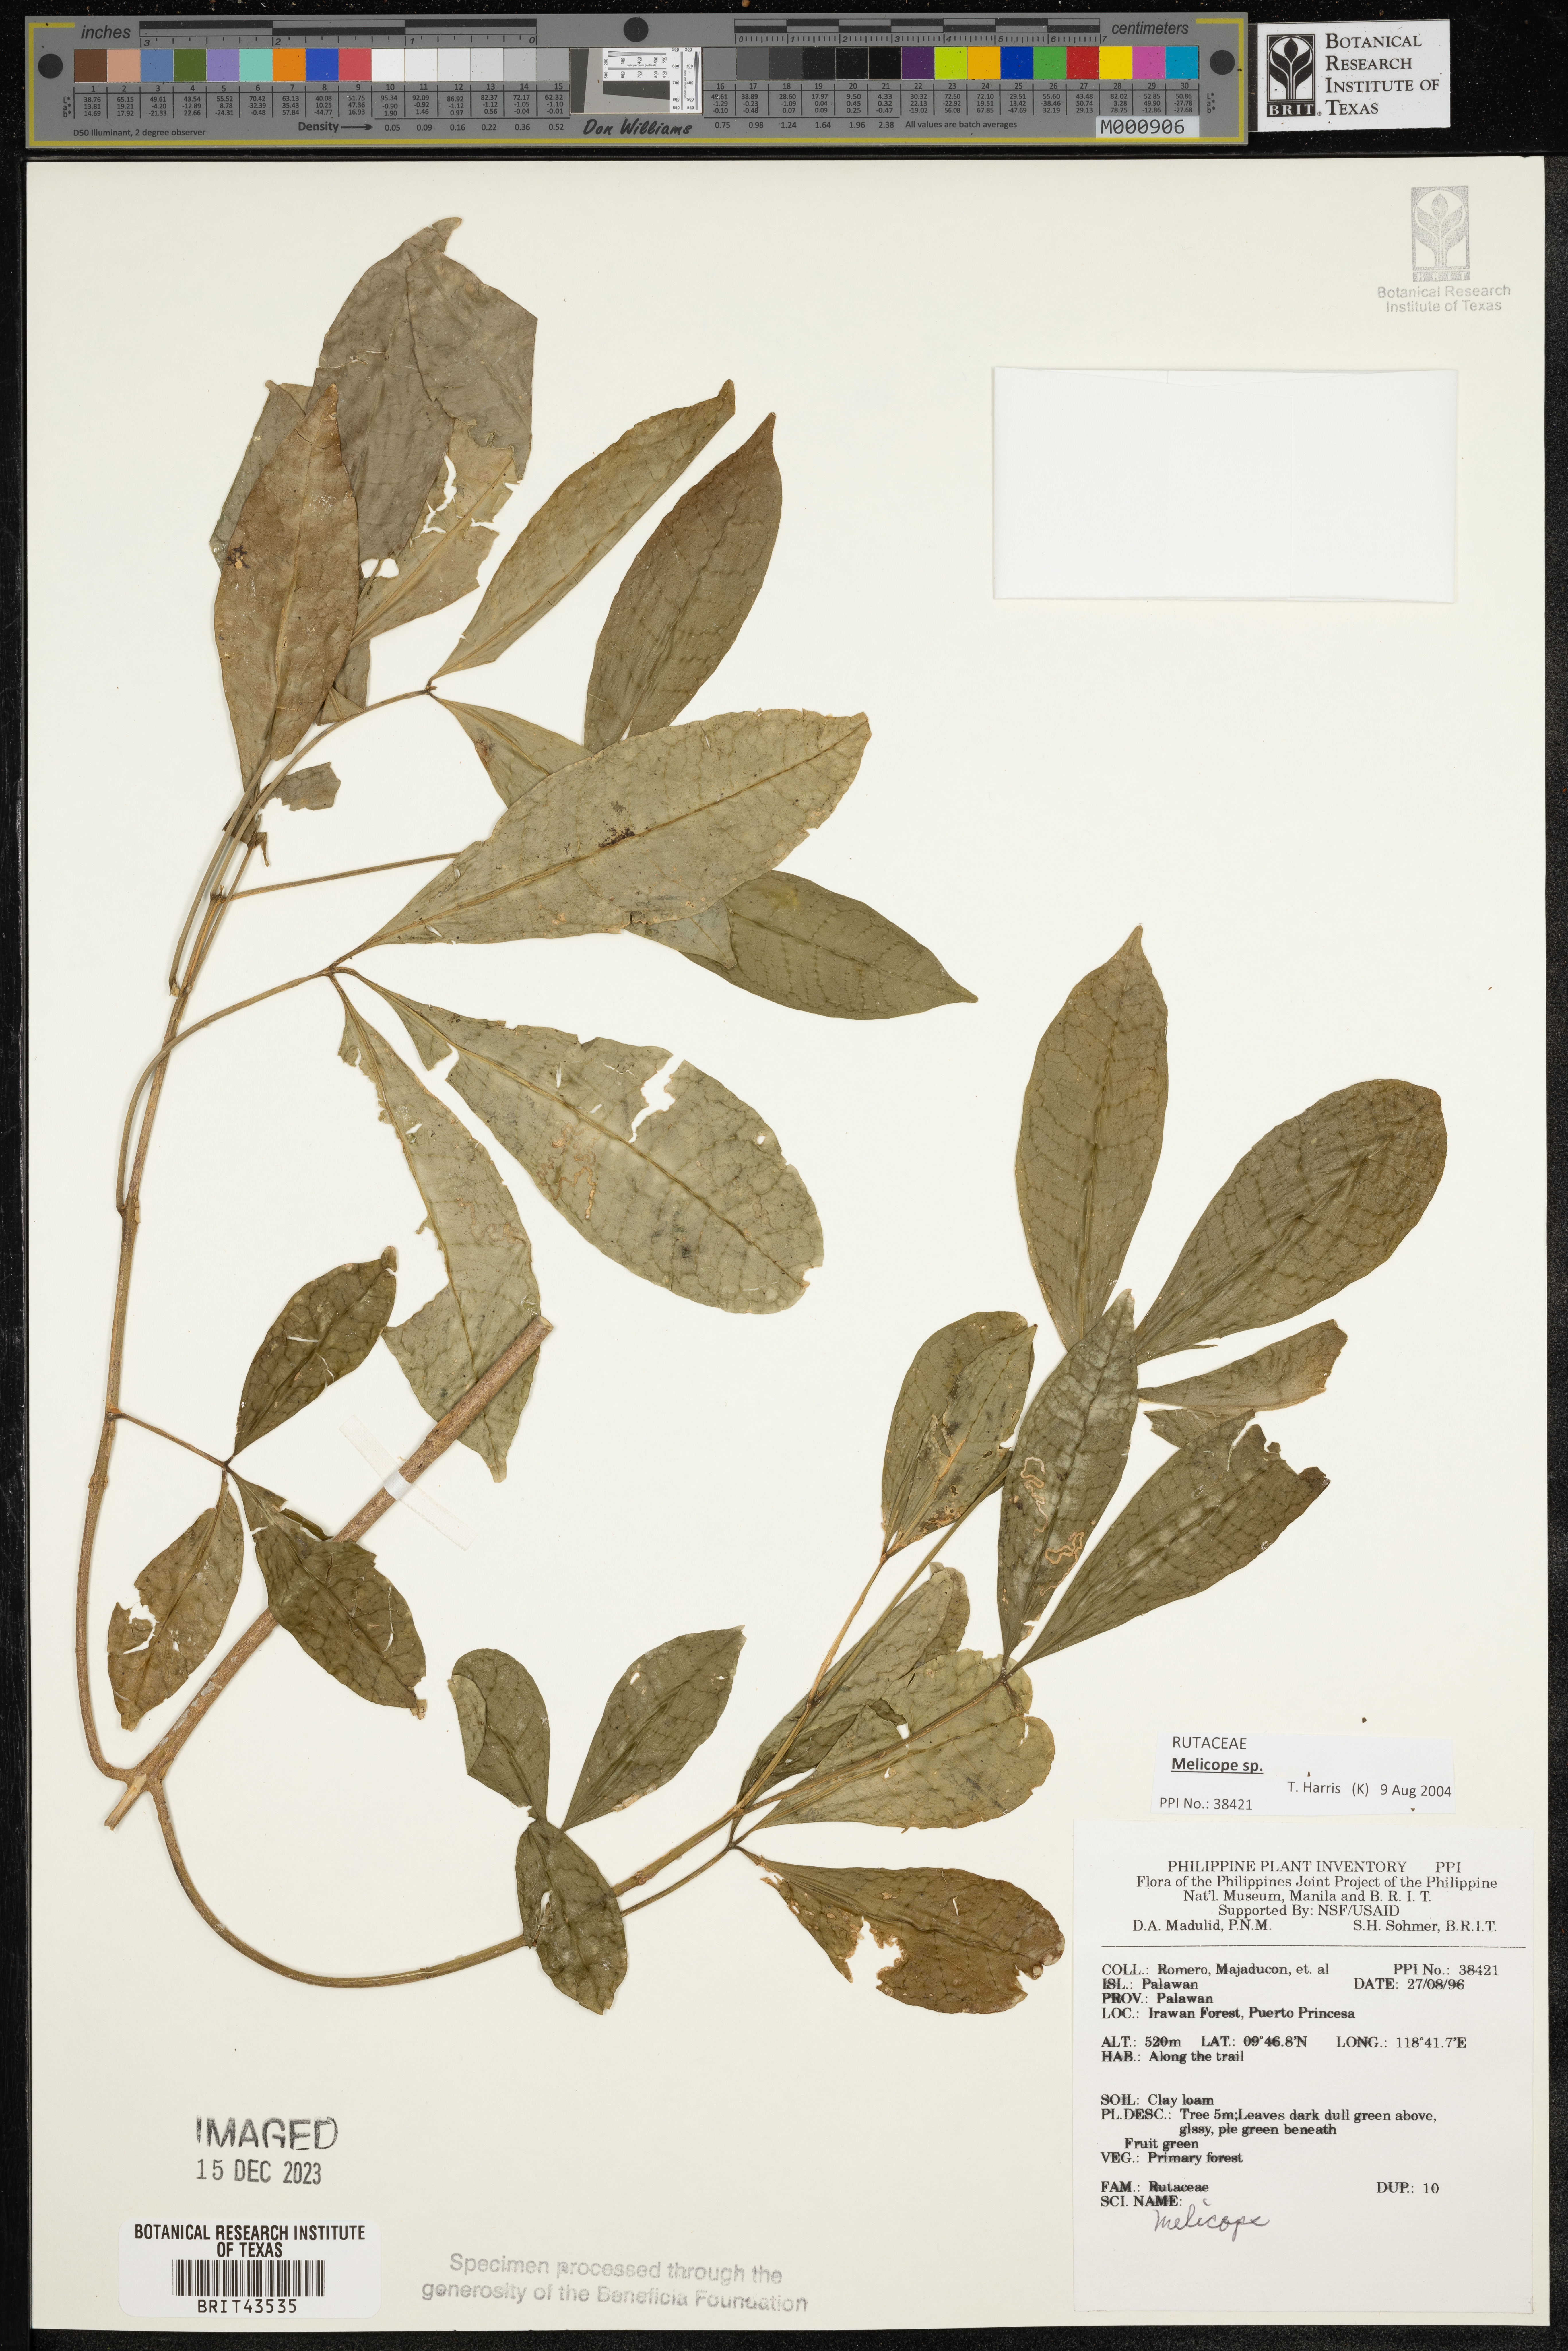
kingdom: Plantae
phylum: Tracheophyta
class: Magnoliopsida
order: Sapindales
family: Rutaceae
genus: Melicope
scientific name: Melicope
